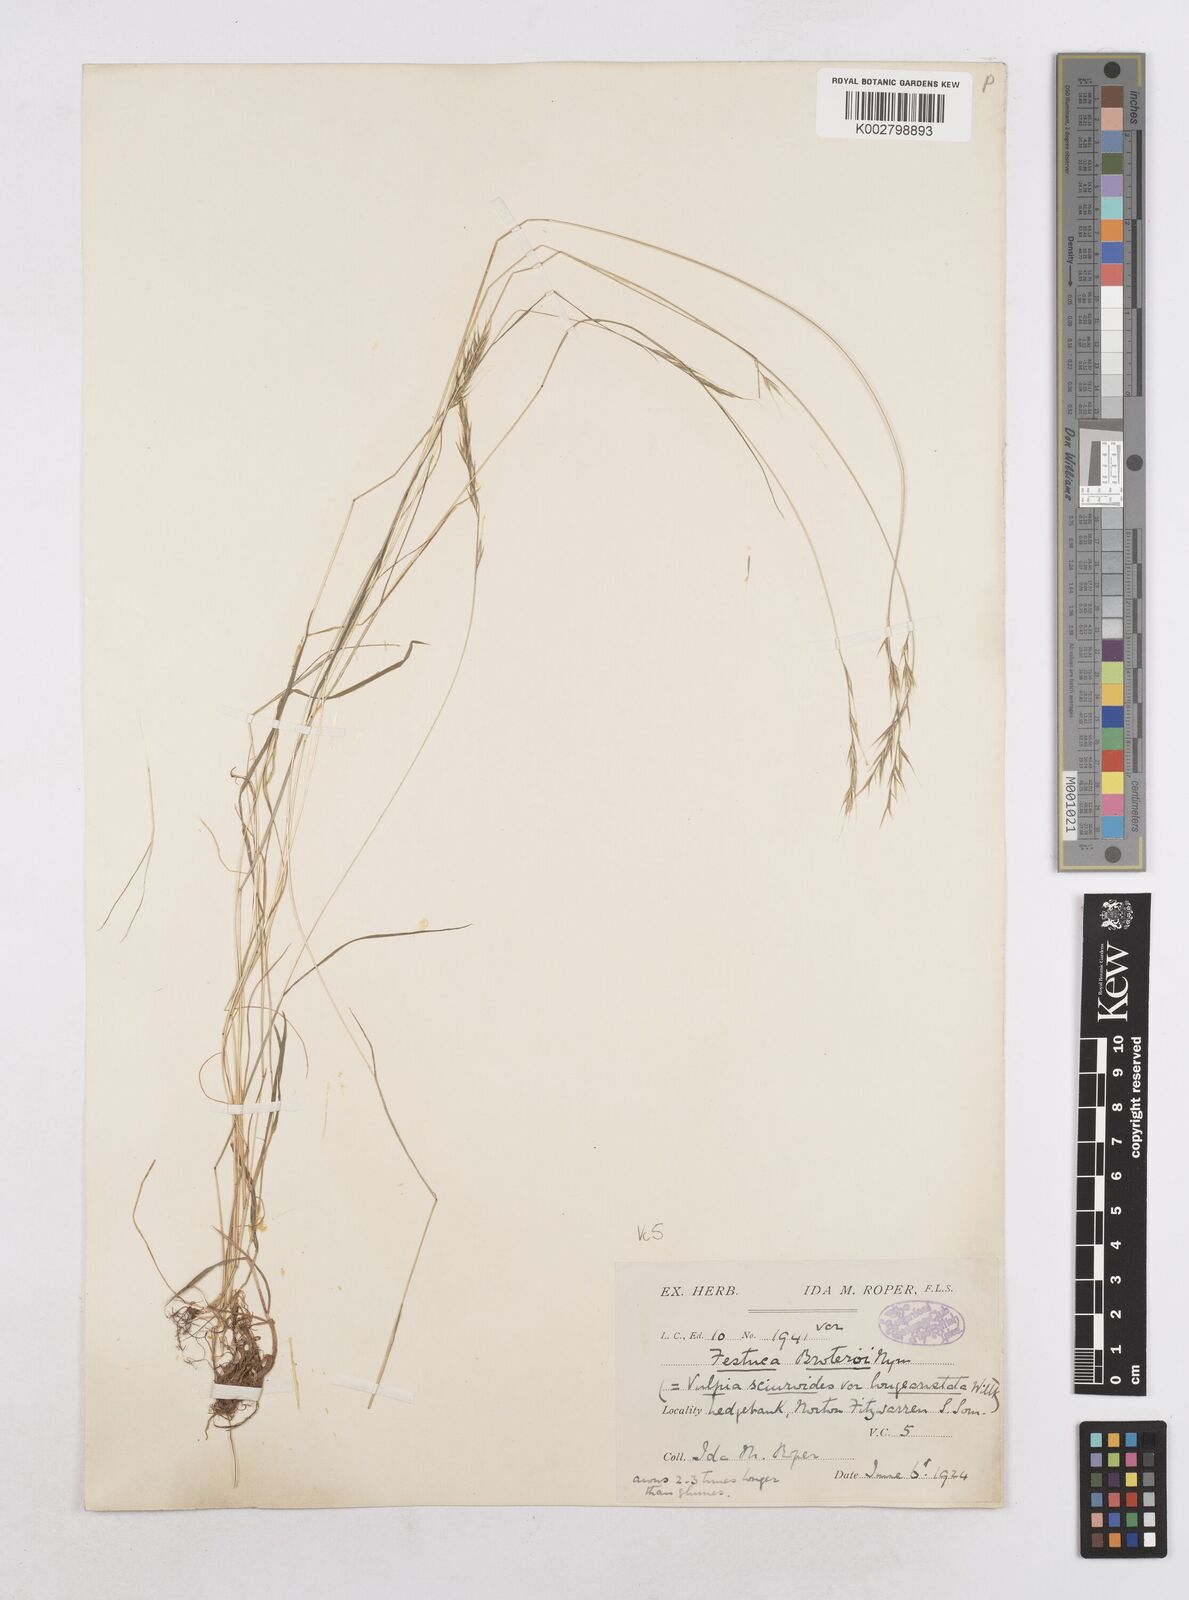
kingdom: Plantae
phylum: Tracheophyta
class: Liliopsida
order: Poales
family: Poaceae
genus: Festuca
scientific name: Festuca
